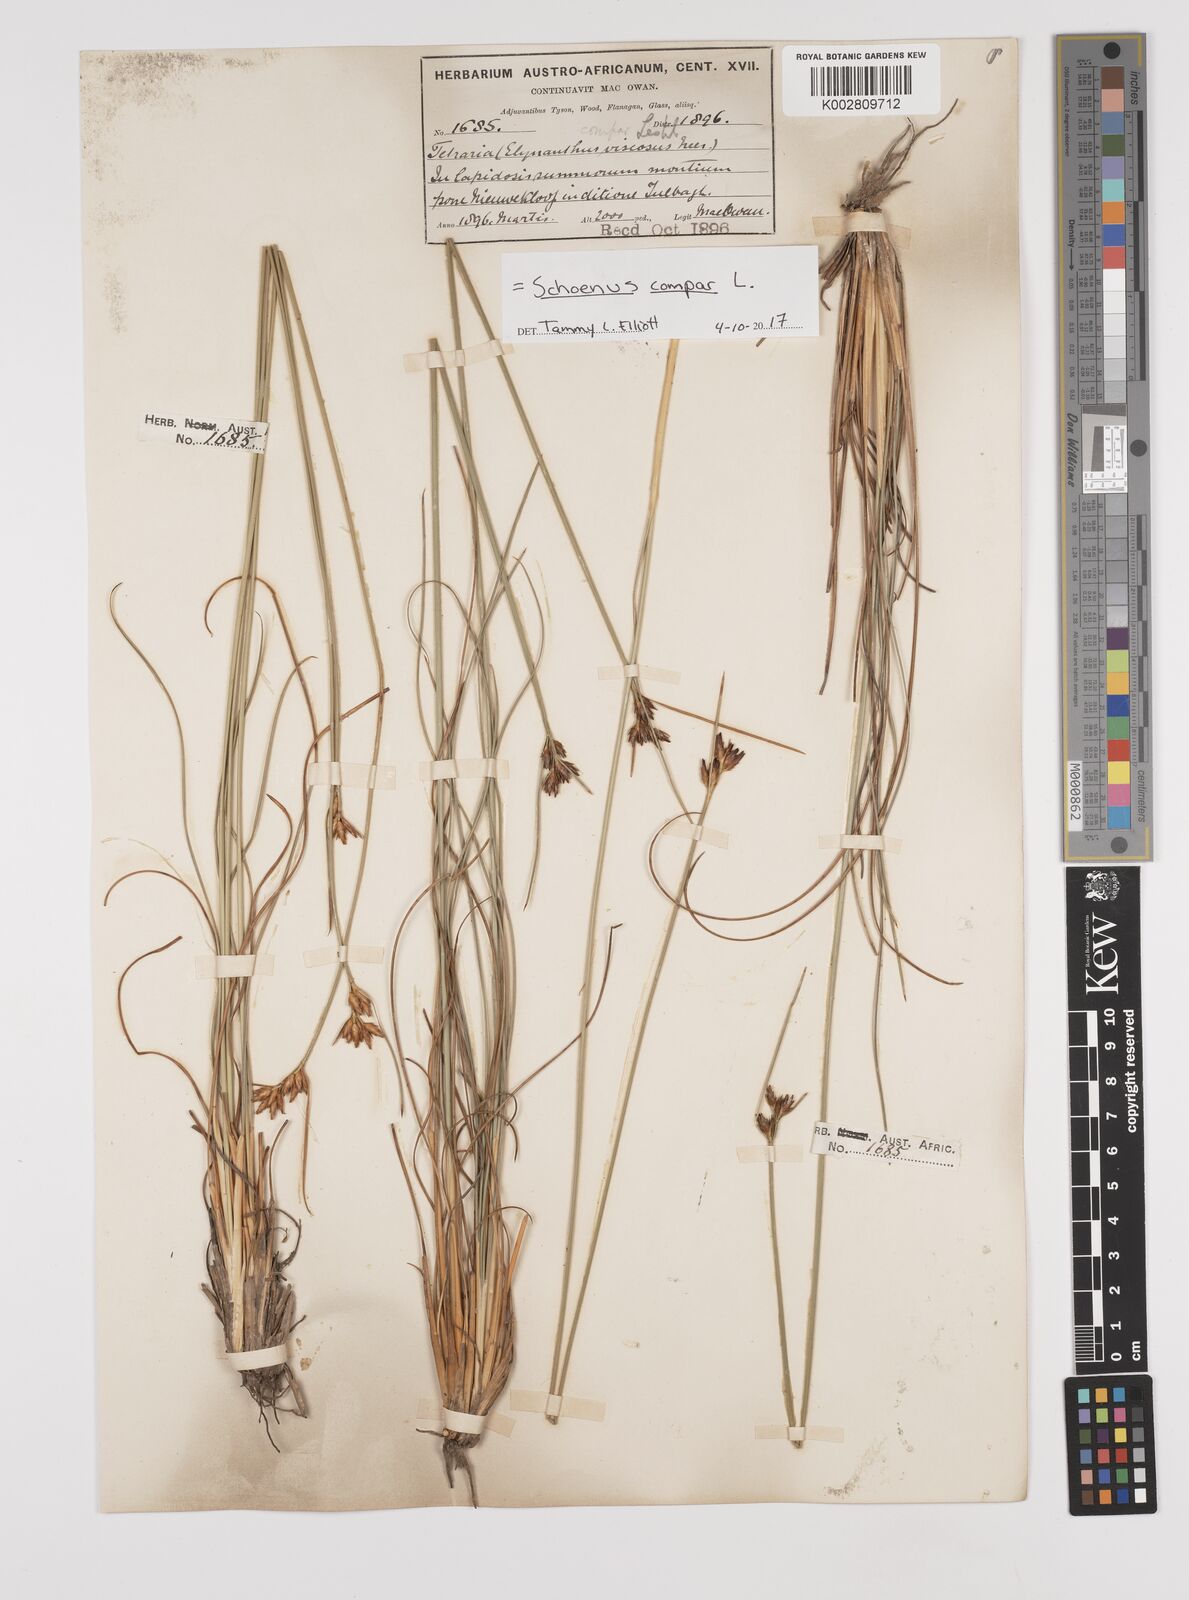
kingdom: Plantae
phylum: Tracheophyta
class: Liliopsida
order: Poales
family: Cyperaceae
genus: Schoenus
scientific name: Schoenus compar
